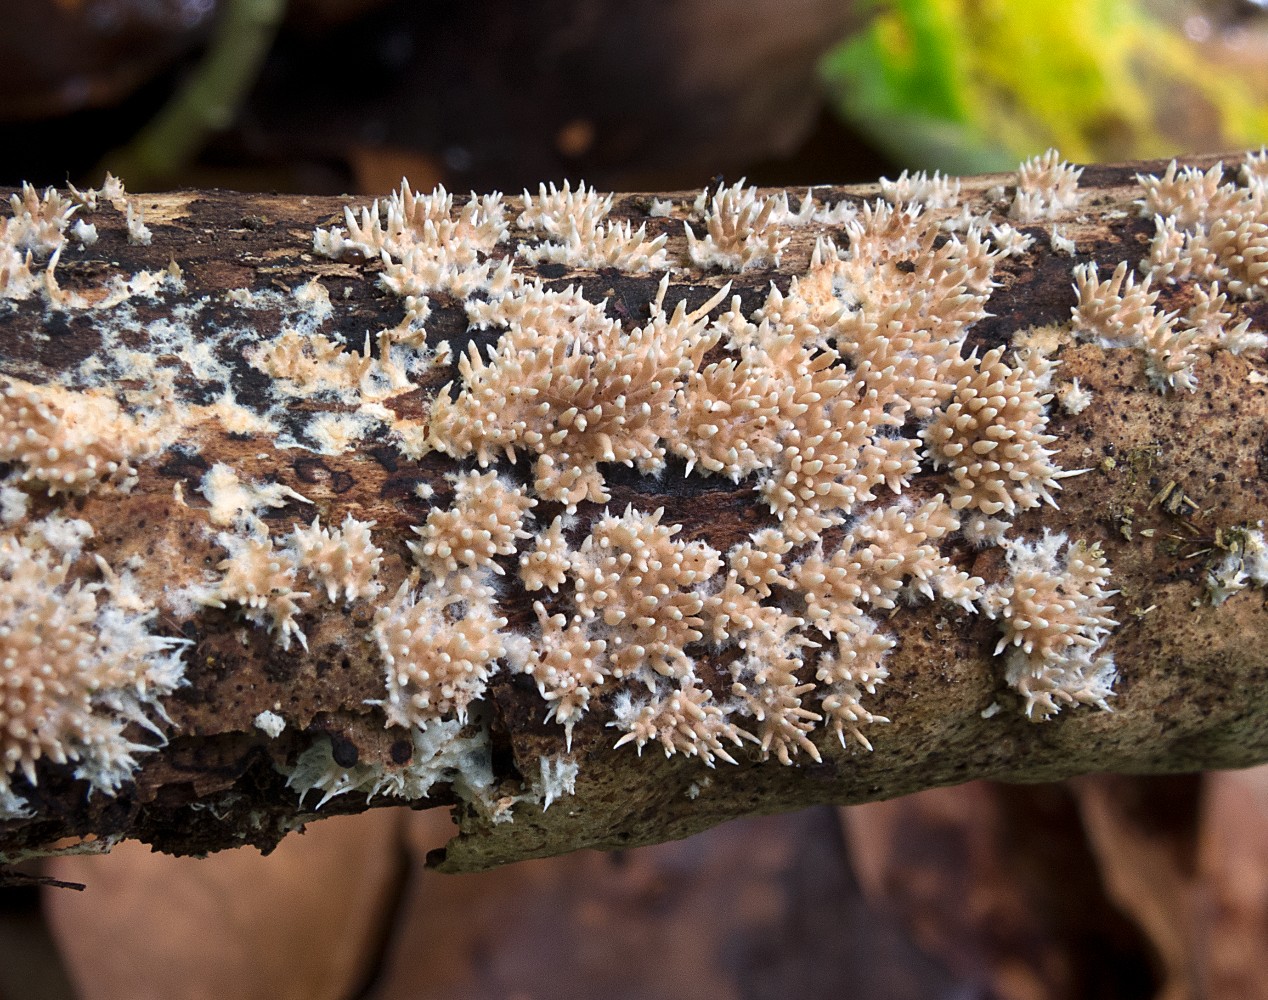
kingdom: Fungi
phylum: Basidiomycota
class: Agaricomycetes
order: Gomphales
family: Lentariaceae
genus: Hydnocristella
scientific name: Hydnocristella himantia
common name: brunlig koralpig
